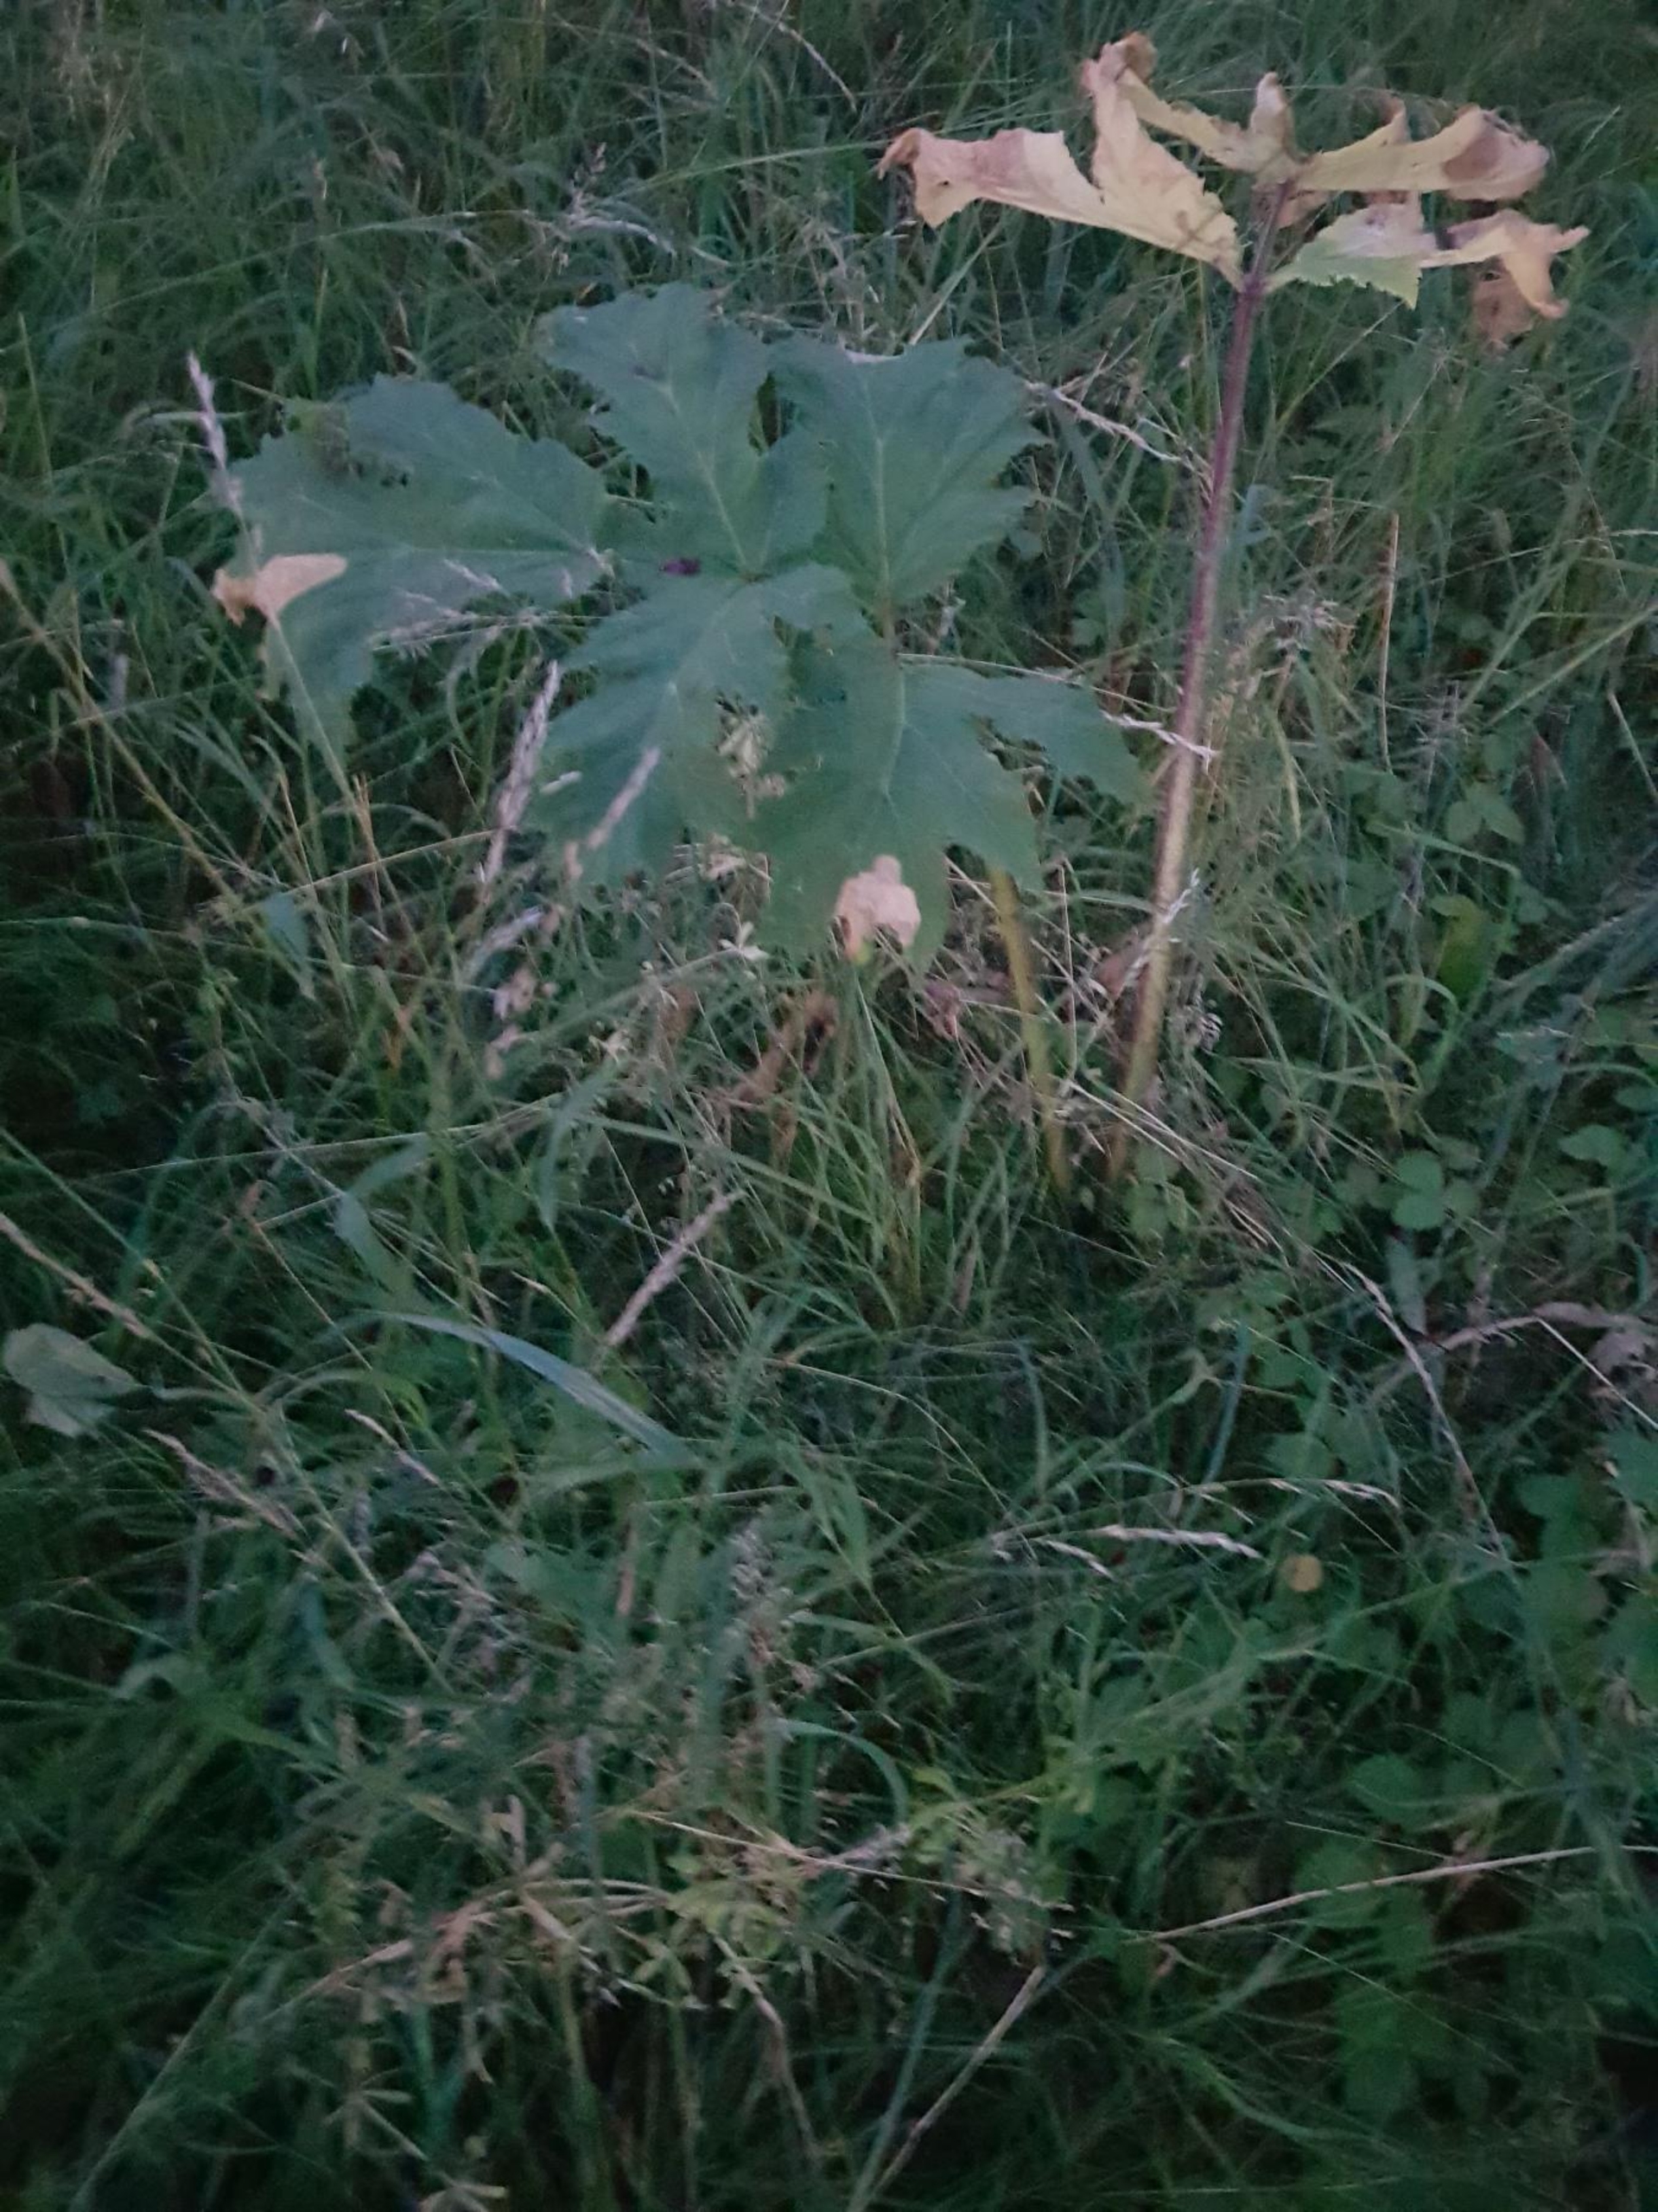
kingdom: Plantae
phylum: Tracheophyta
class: Magnoliopsida
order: Apiales
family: Apiaceae
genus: Heracleum
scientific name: Heracleum mantegazzianum
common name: Kæmpe-bjørneklo
